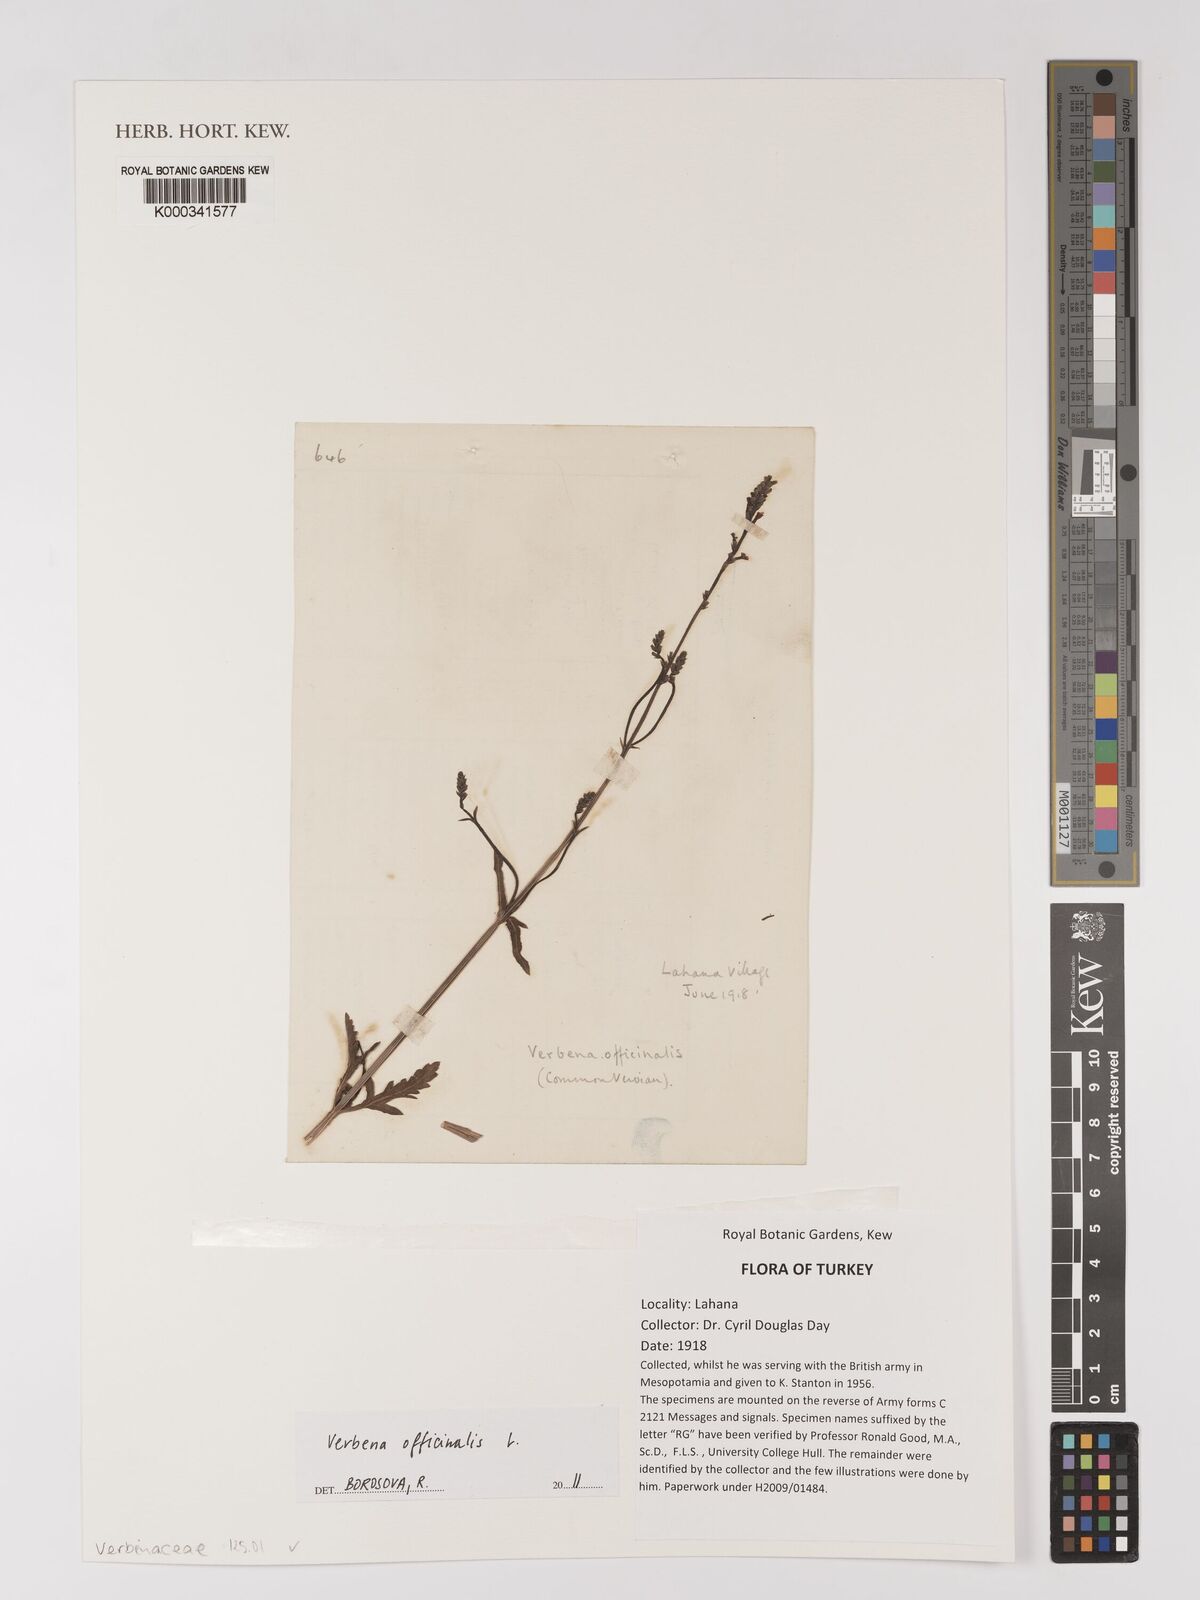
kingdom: Plantae
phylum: Tracheophyta
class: Magnoliopsida
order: Lamiales
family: Verbenaceae
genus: Verbena
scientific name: Verbena officinalis
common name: Vervain
